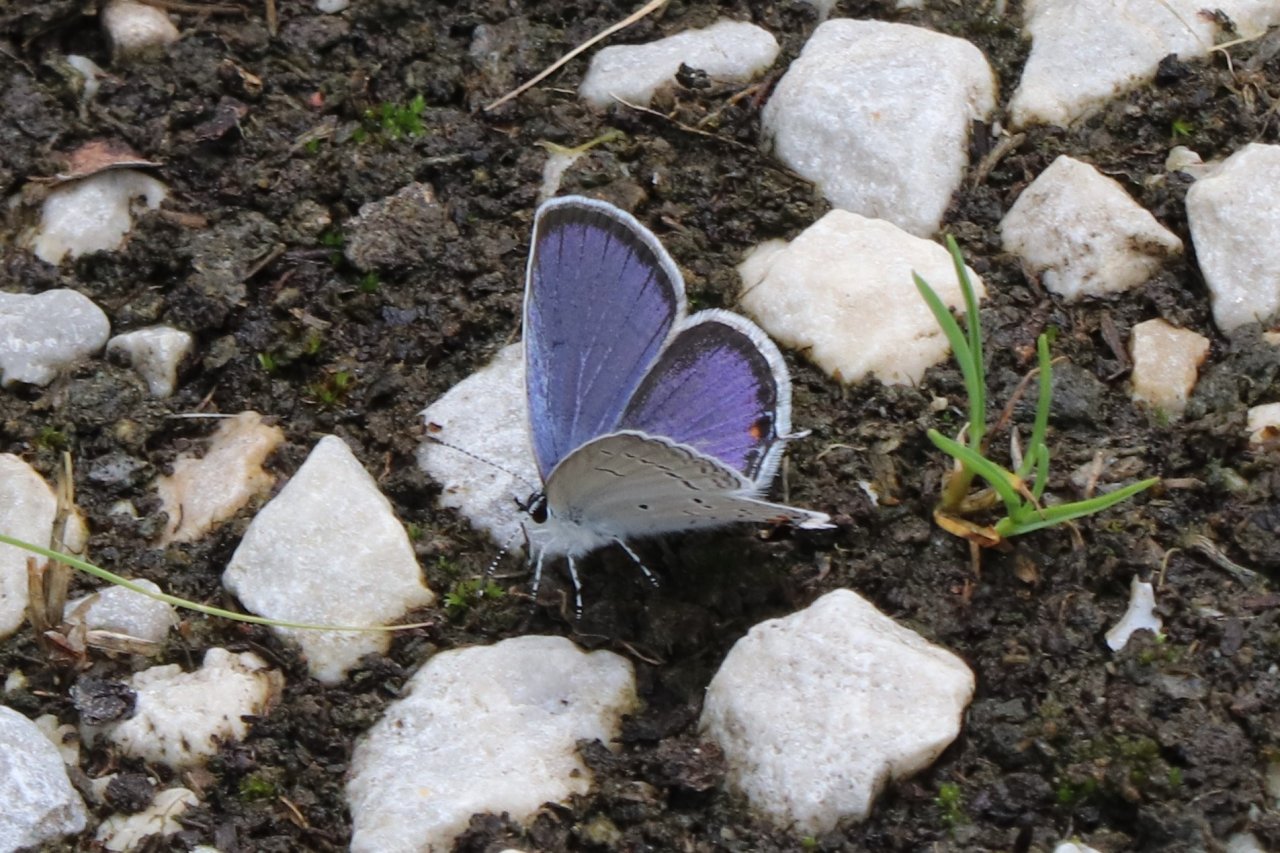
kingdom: Animalia
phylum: Arthropoda
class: Insecta
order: Lepidoptera
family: Lycaenidae
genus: Elkalyce
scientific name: Elkalyce comyntas
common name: Eastern Tailed-Blue
